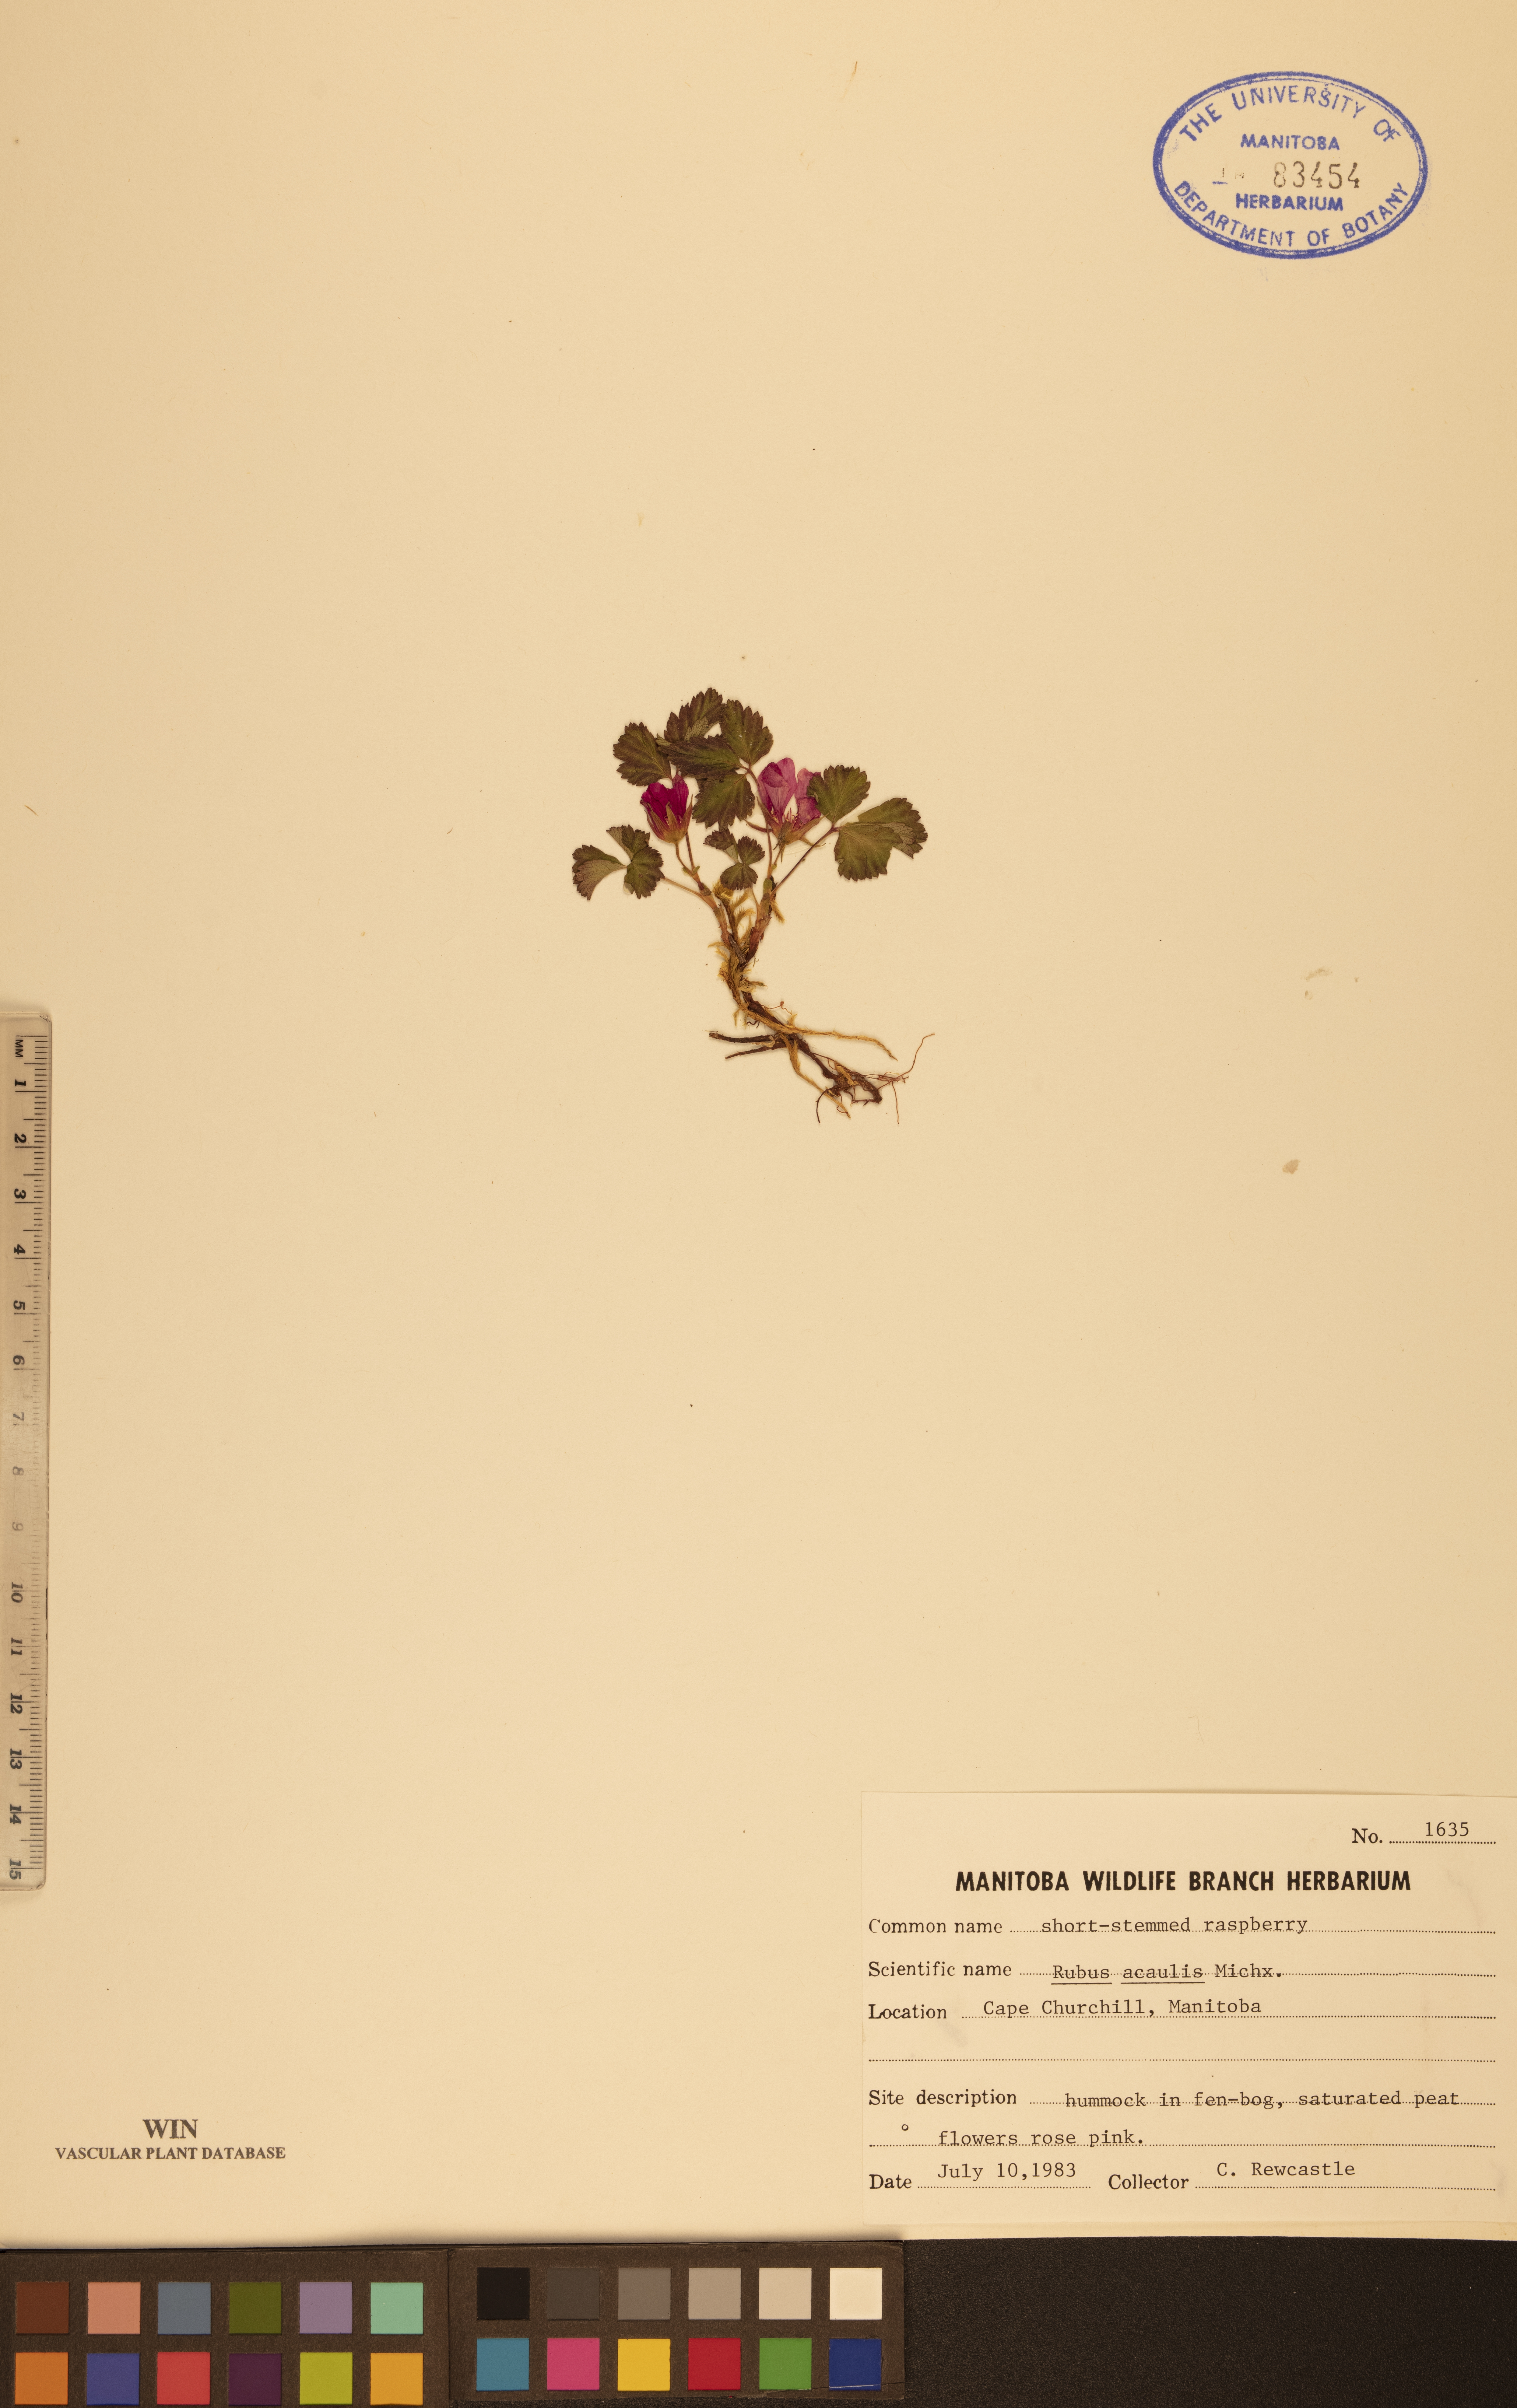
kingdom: Plantae
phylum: Tracheophyta
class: Magnoliopsida
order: Rosales
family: Rosaceae
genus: Rubus
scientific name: Rubus arcticus
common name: Arctic bramble
